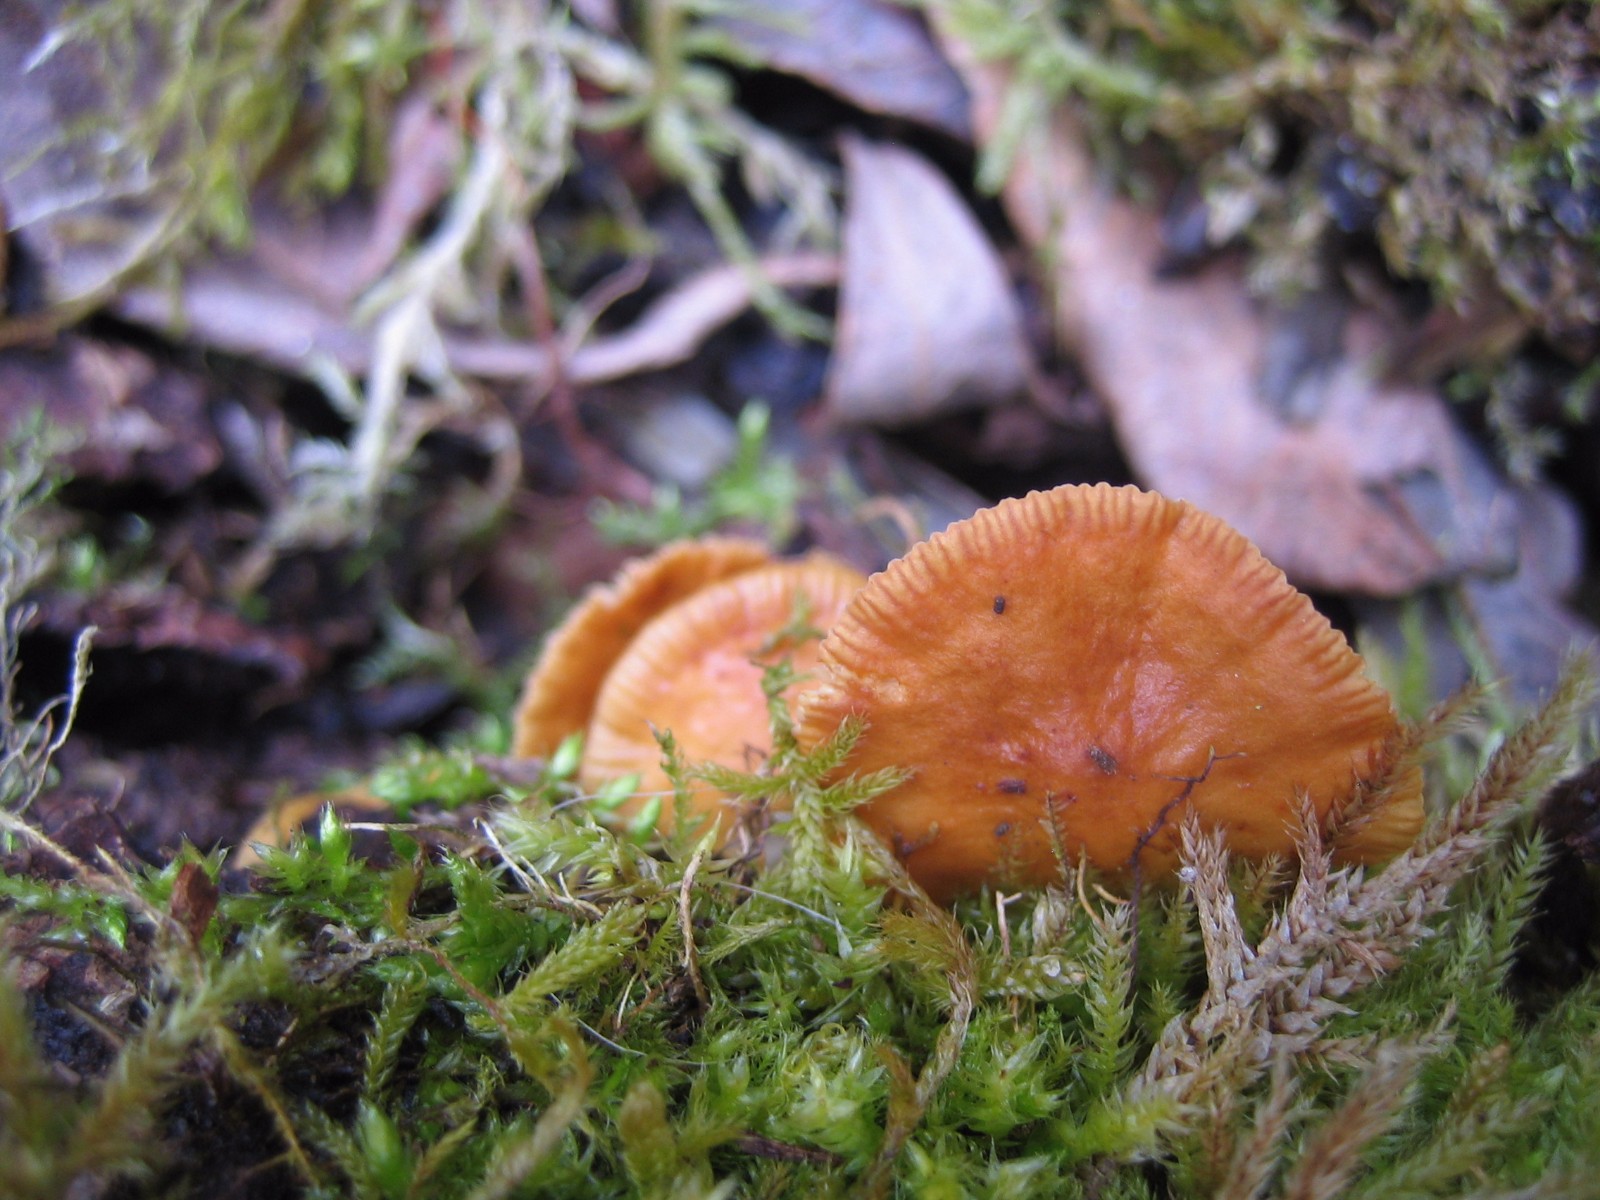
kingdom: Fungi
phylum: Basidiomycota
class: Agaricomycetes
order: Agaricales
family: Physalacriaceae
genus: Flammulina
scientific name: Flammulina
